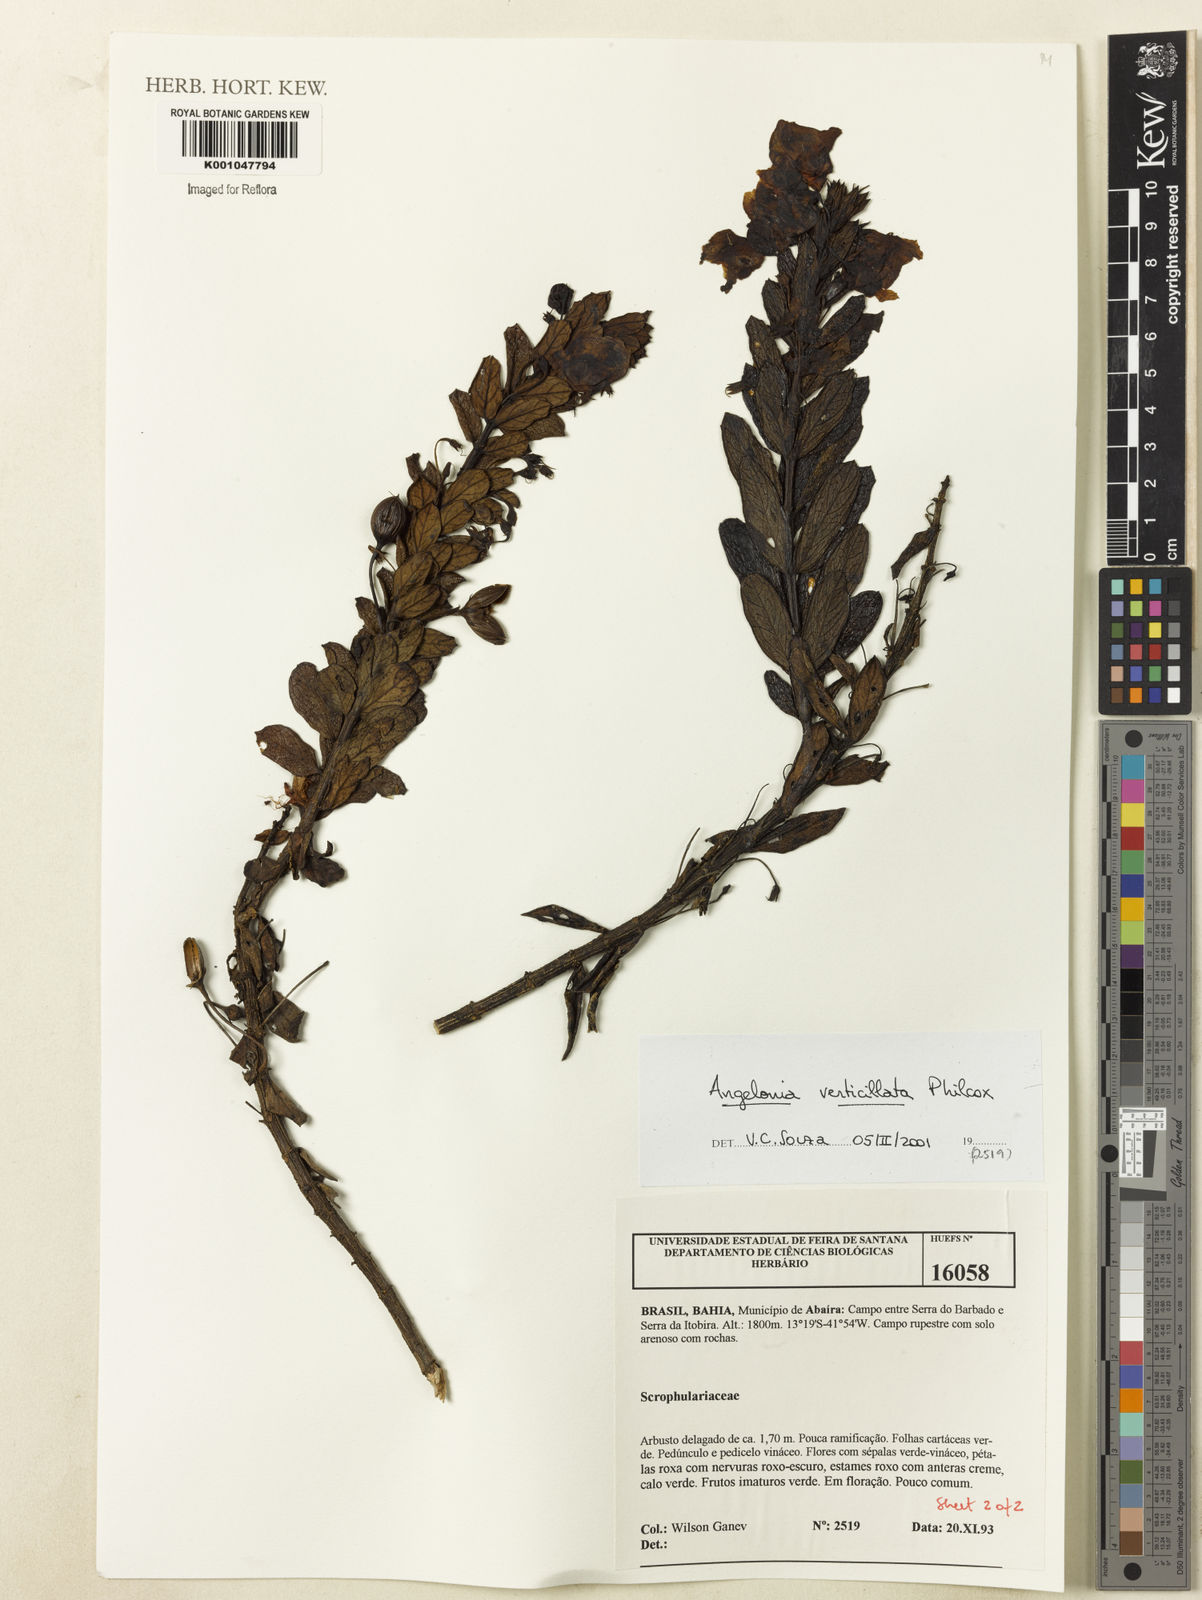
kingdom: Plantae
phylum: Tracheophyta
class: Magnoliopsida
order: Lamiales
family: Plantaginaceae
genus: Angelonia
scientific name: Angelonia verticillata
